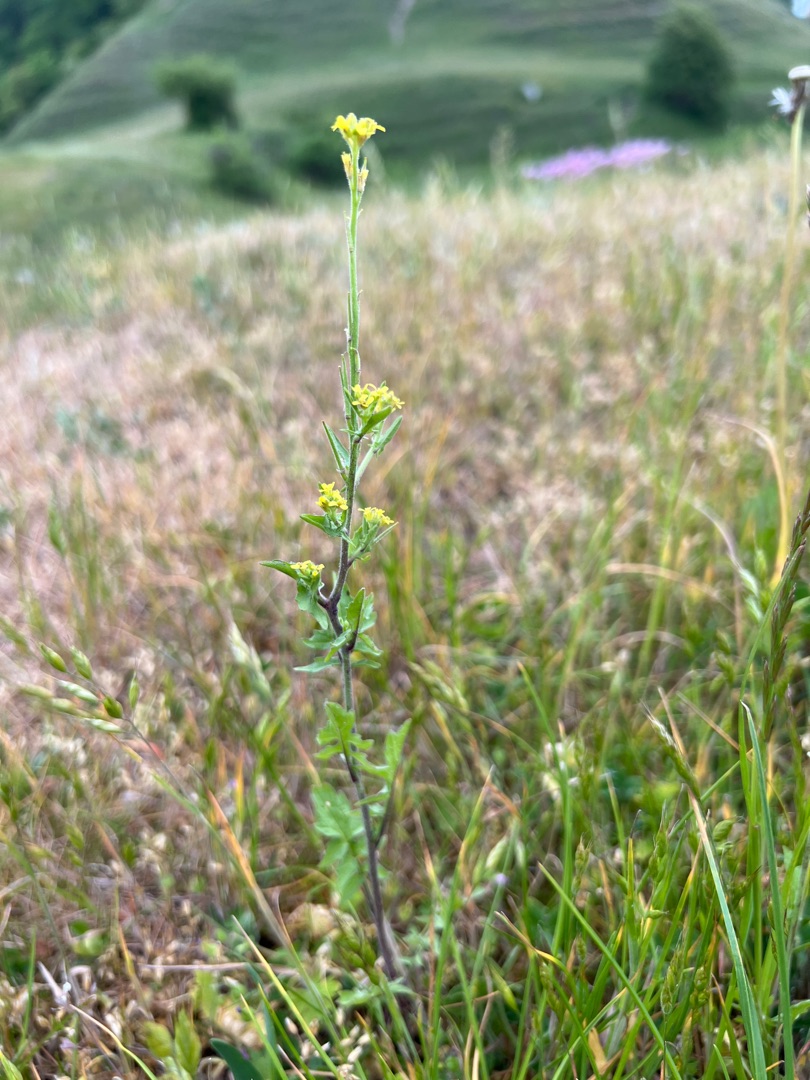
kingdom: Plantae
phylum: Tracheophyta
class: Magnoliopsida
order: Brassicales
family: Brassicaceae
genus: Sisymbrium
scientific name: Sisymbrium officinale
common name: Rank vejsennep
